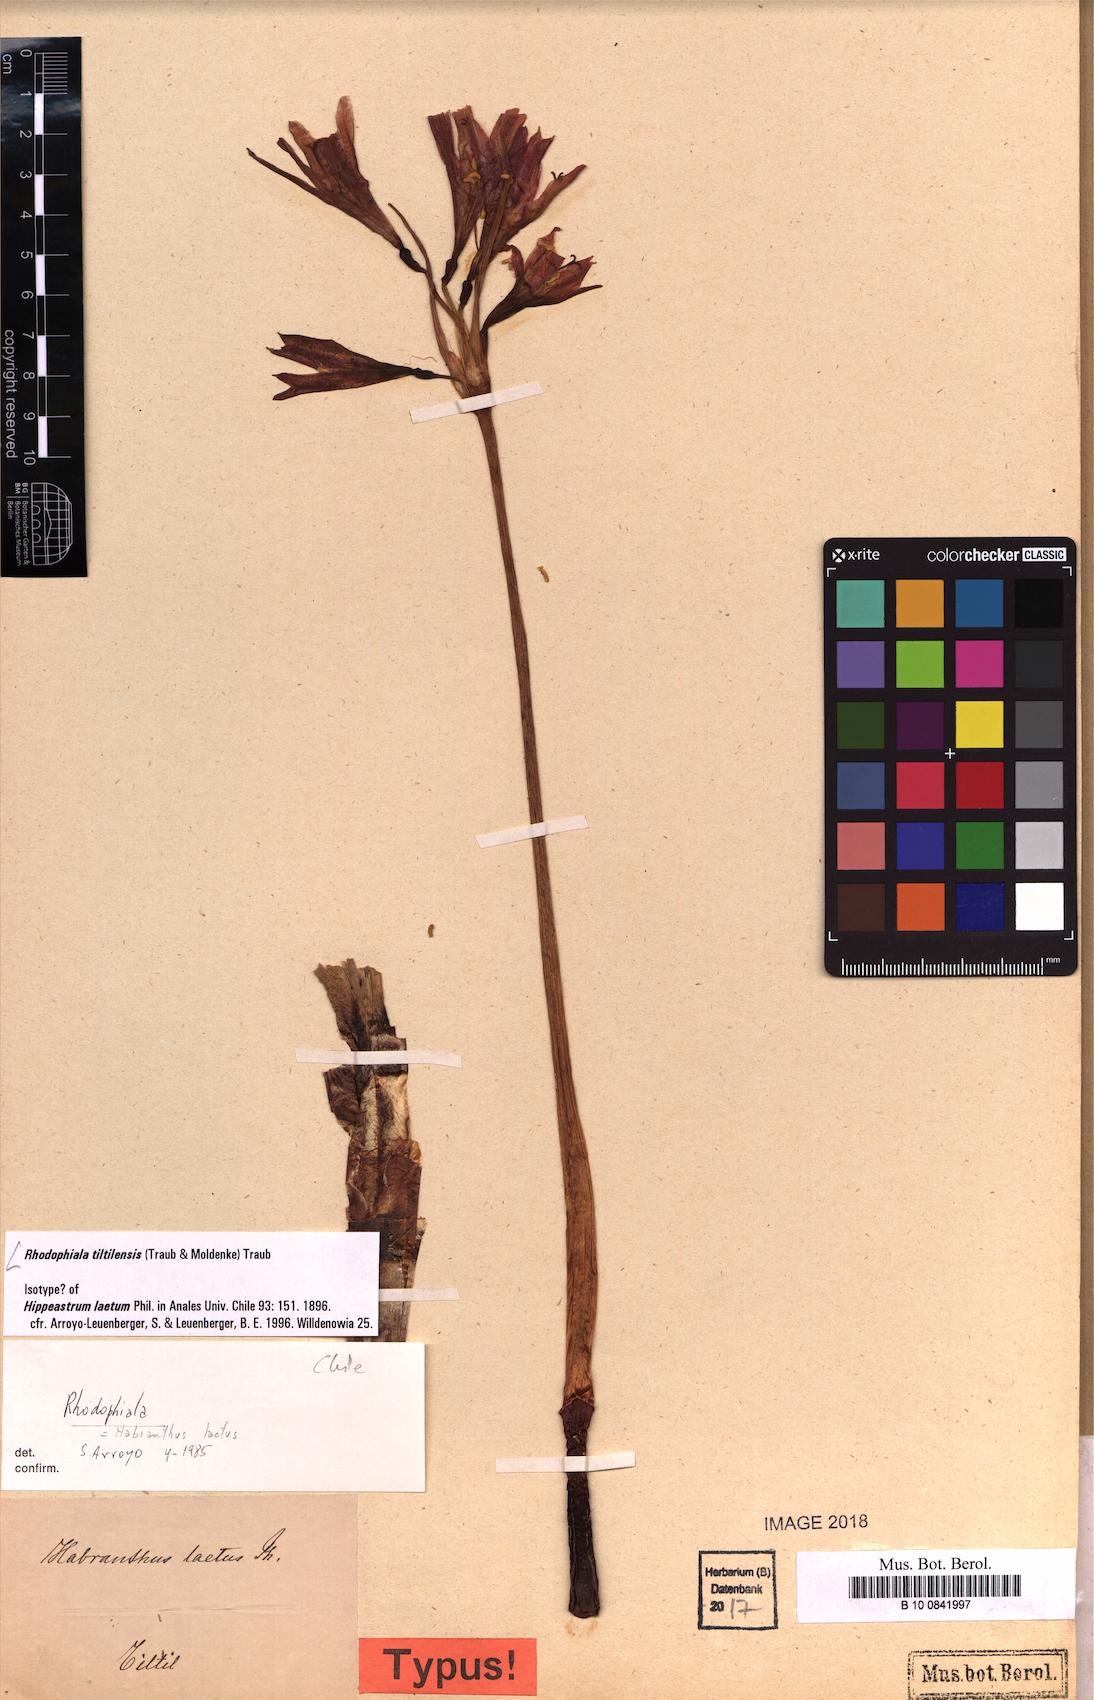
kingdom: Plantae
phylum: Tracheophyta
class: Liliopsida
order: Asparagales
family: Amaryllidaceae
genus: Zephyranthes
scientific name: Zephyranthes laeta
